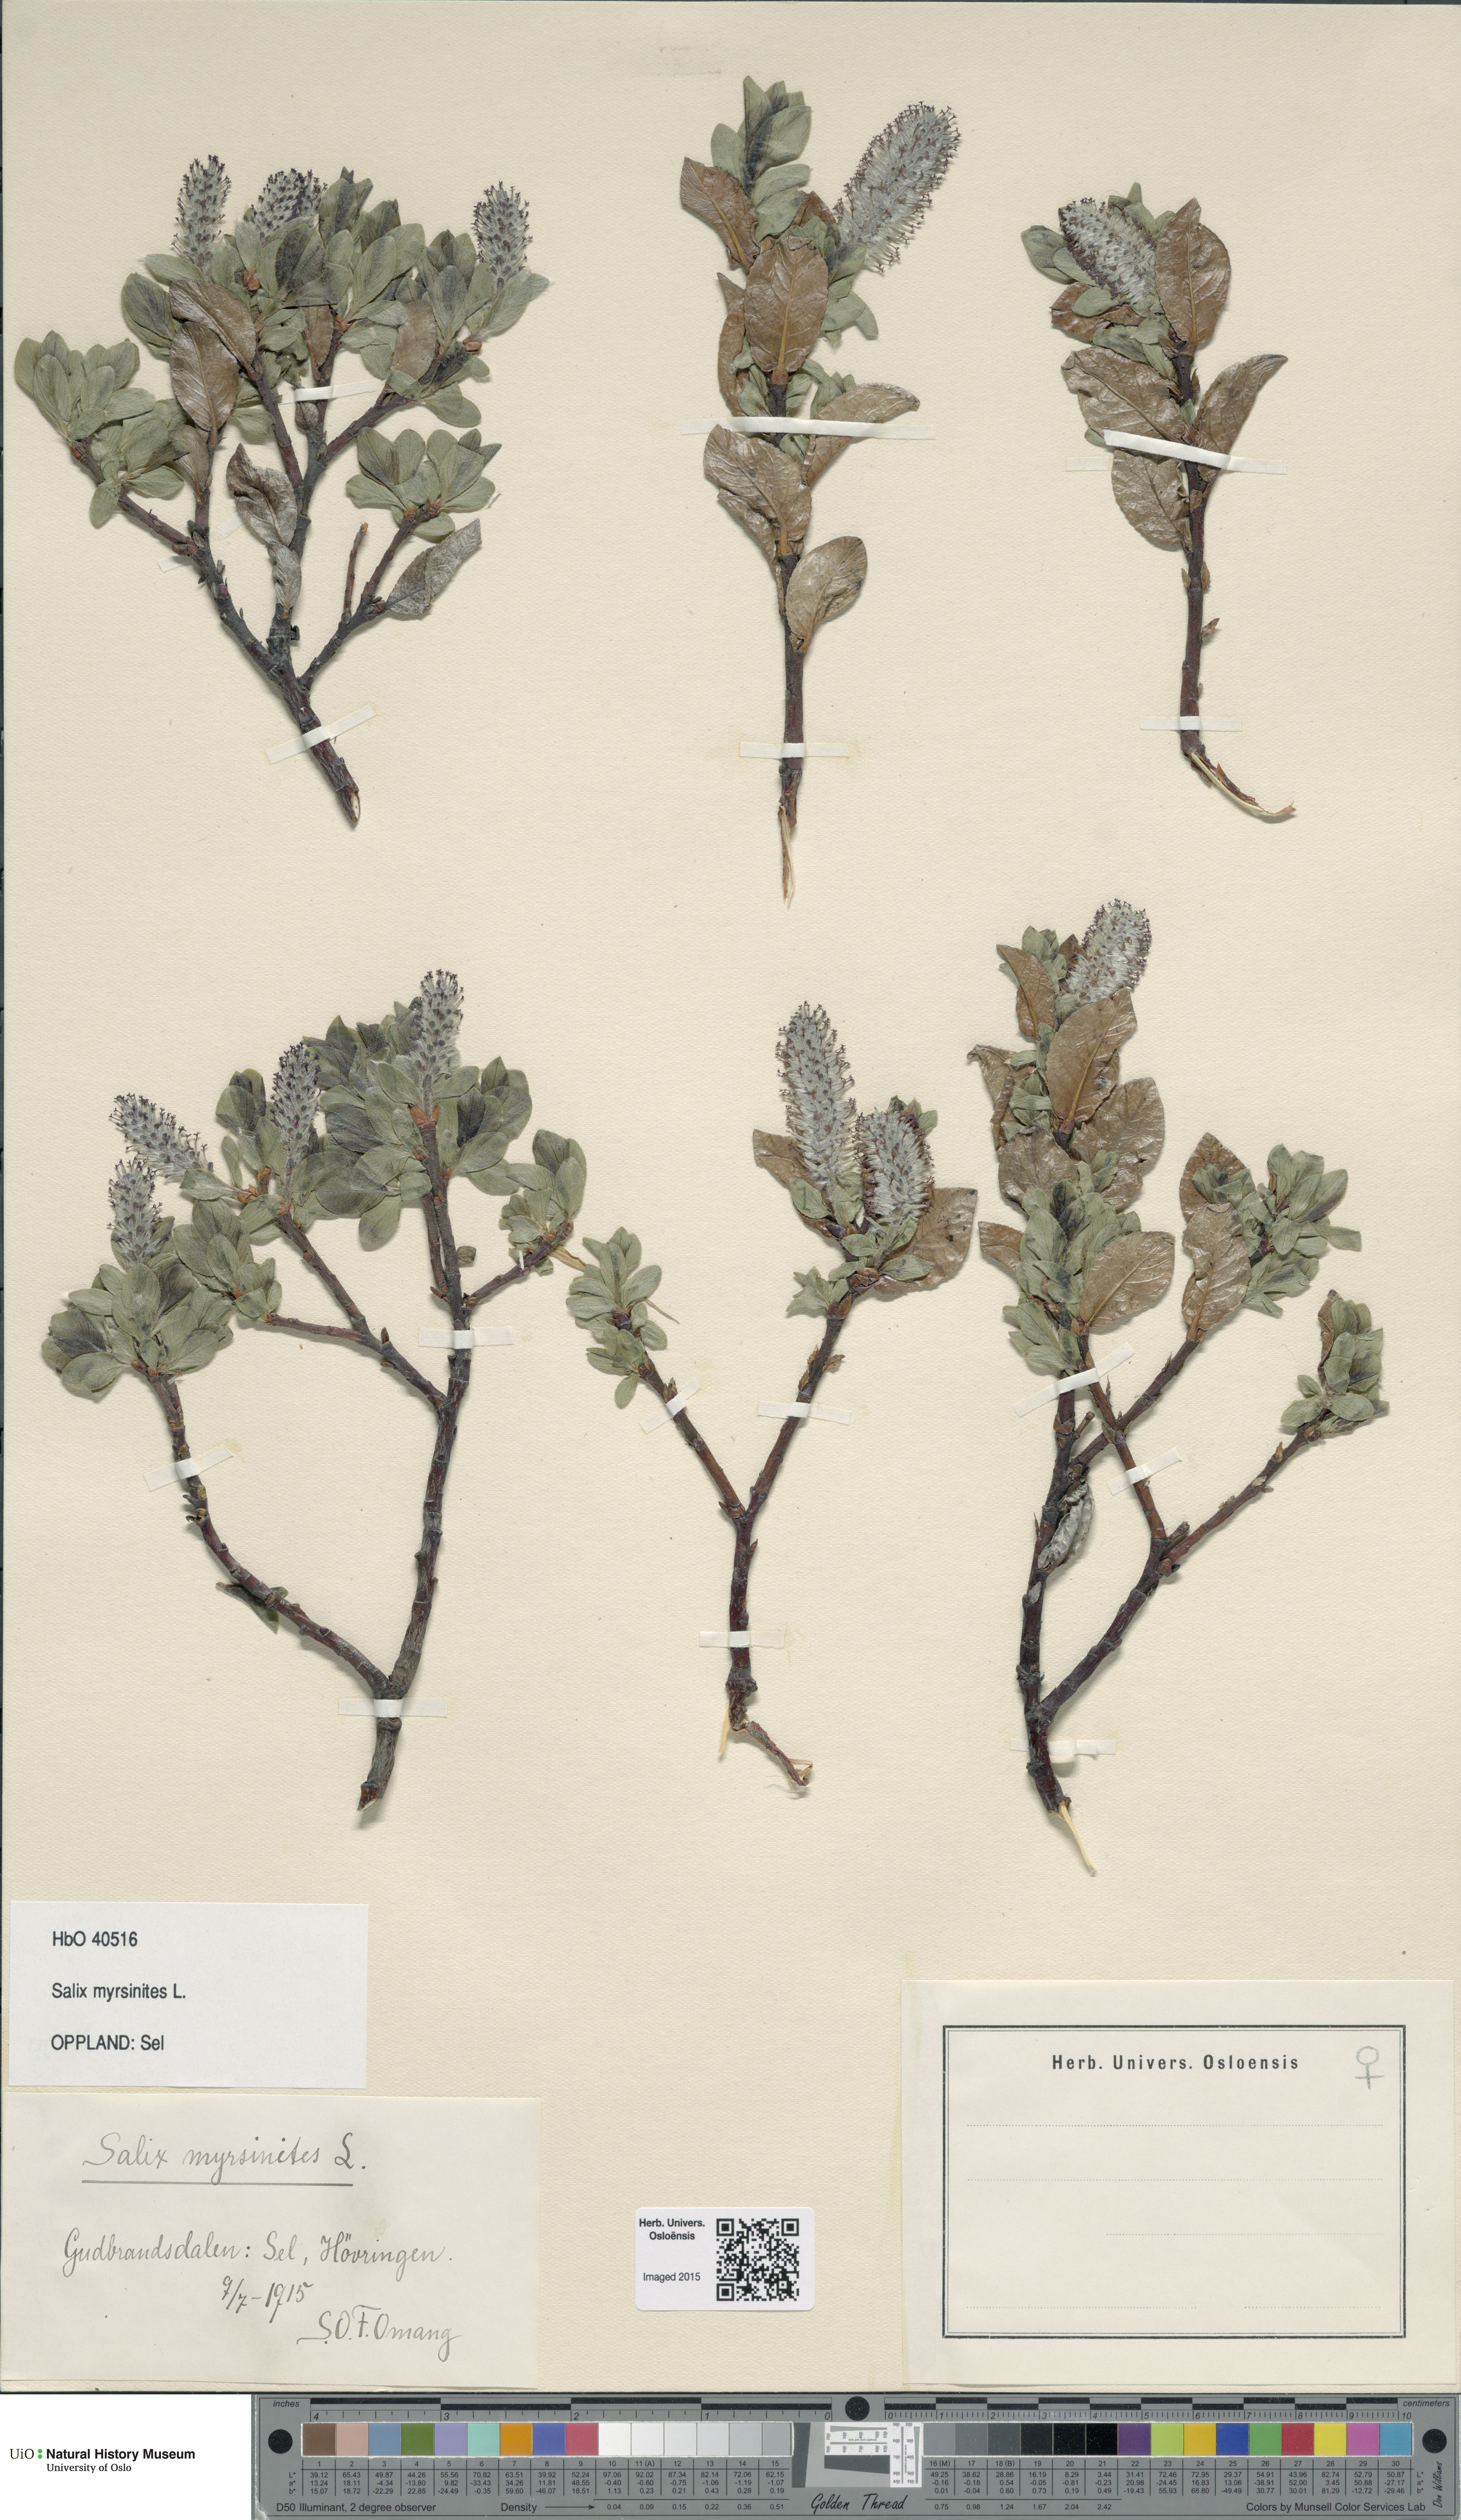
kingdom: Plantae
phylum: Tracheophyta
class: Magnoliopsida
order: Malpighiales
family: Salicaceae
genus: Salix
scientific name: Salix myrsinites
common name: Myrtle willow
